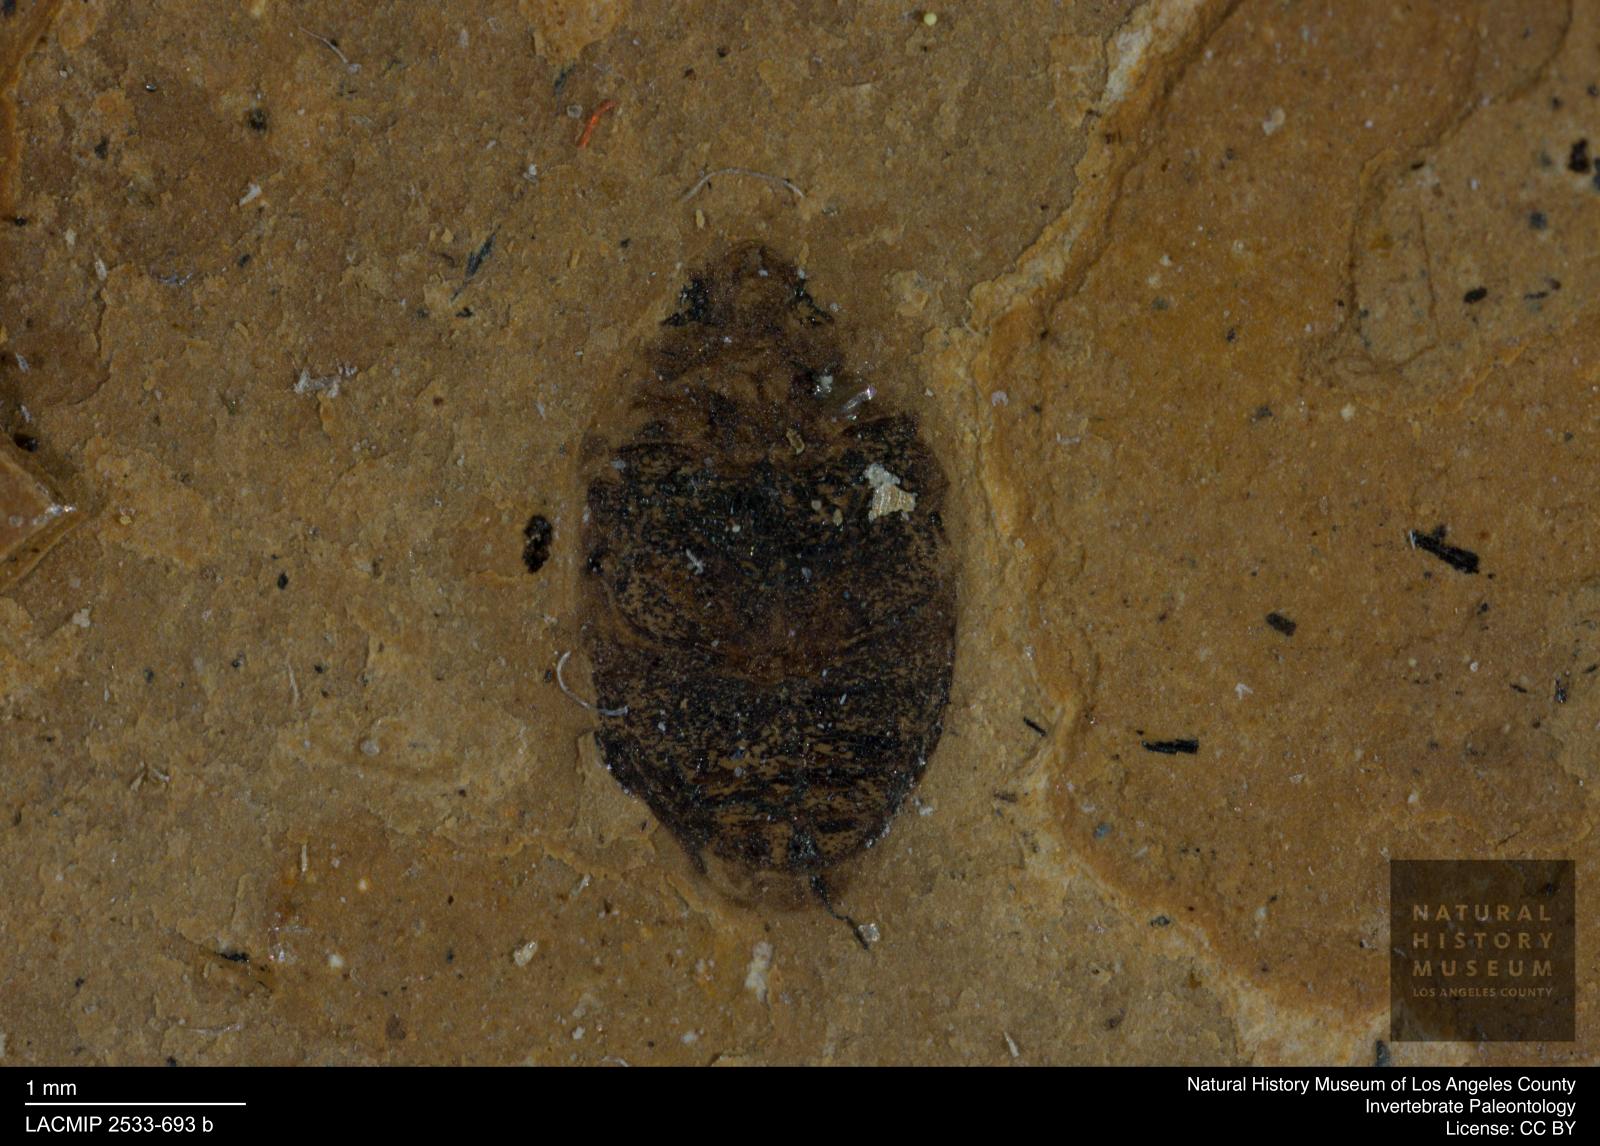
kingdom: Animalia
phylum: Arthropoda
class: Insecta
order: Coleoptera
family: Dytiscidae
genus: Oreodytes
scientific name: Oreodytes cryptolineatus
